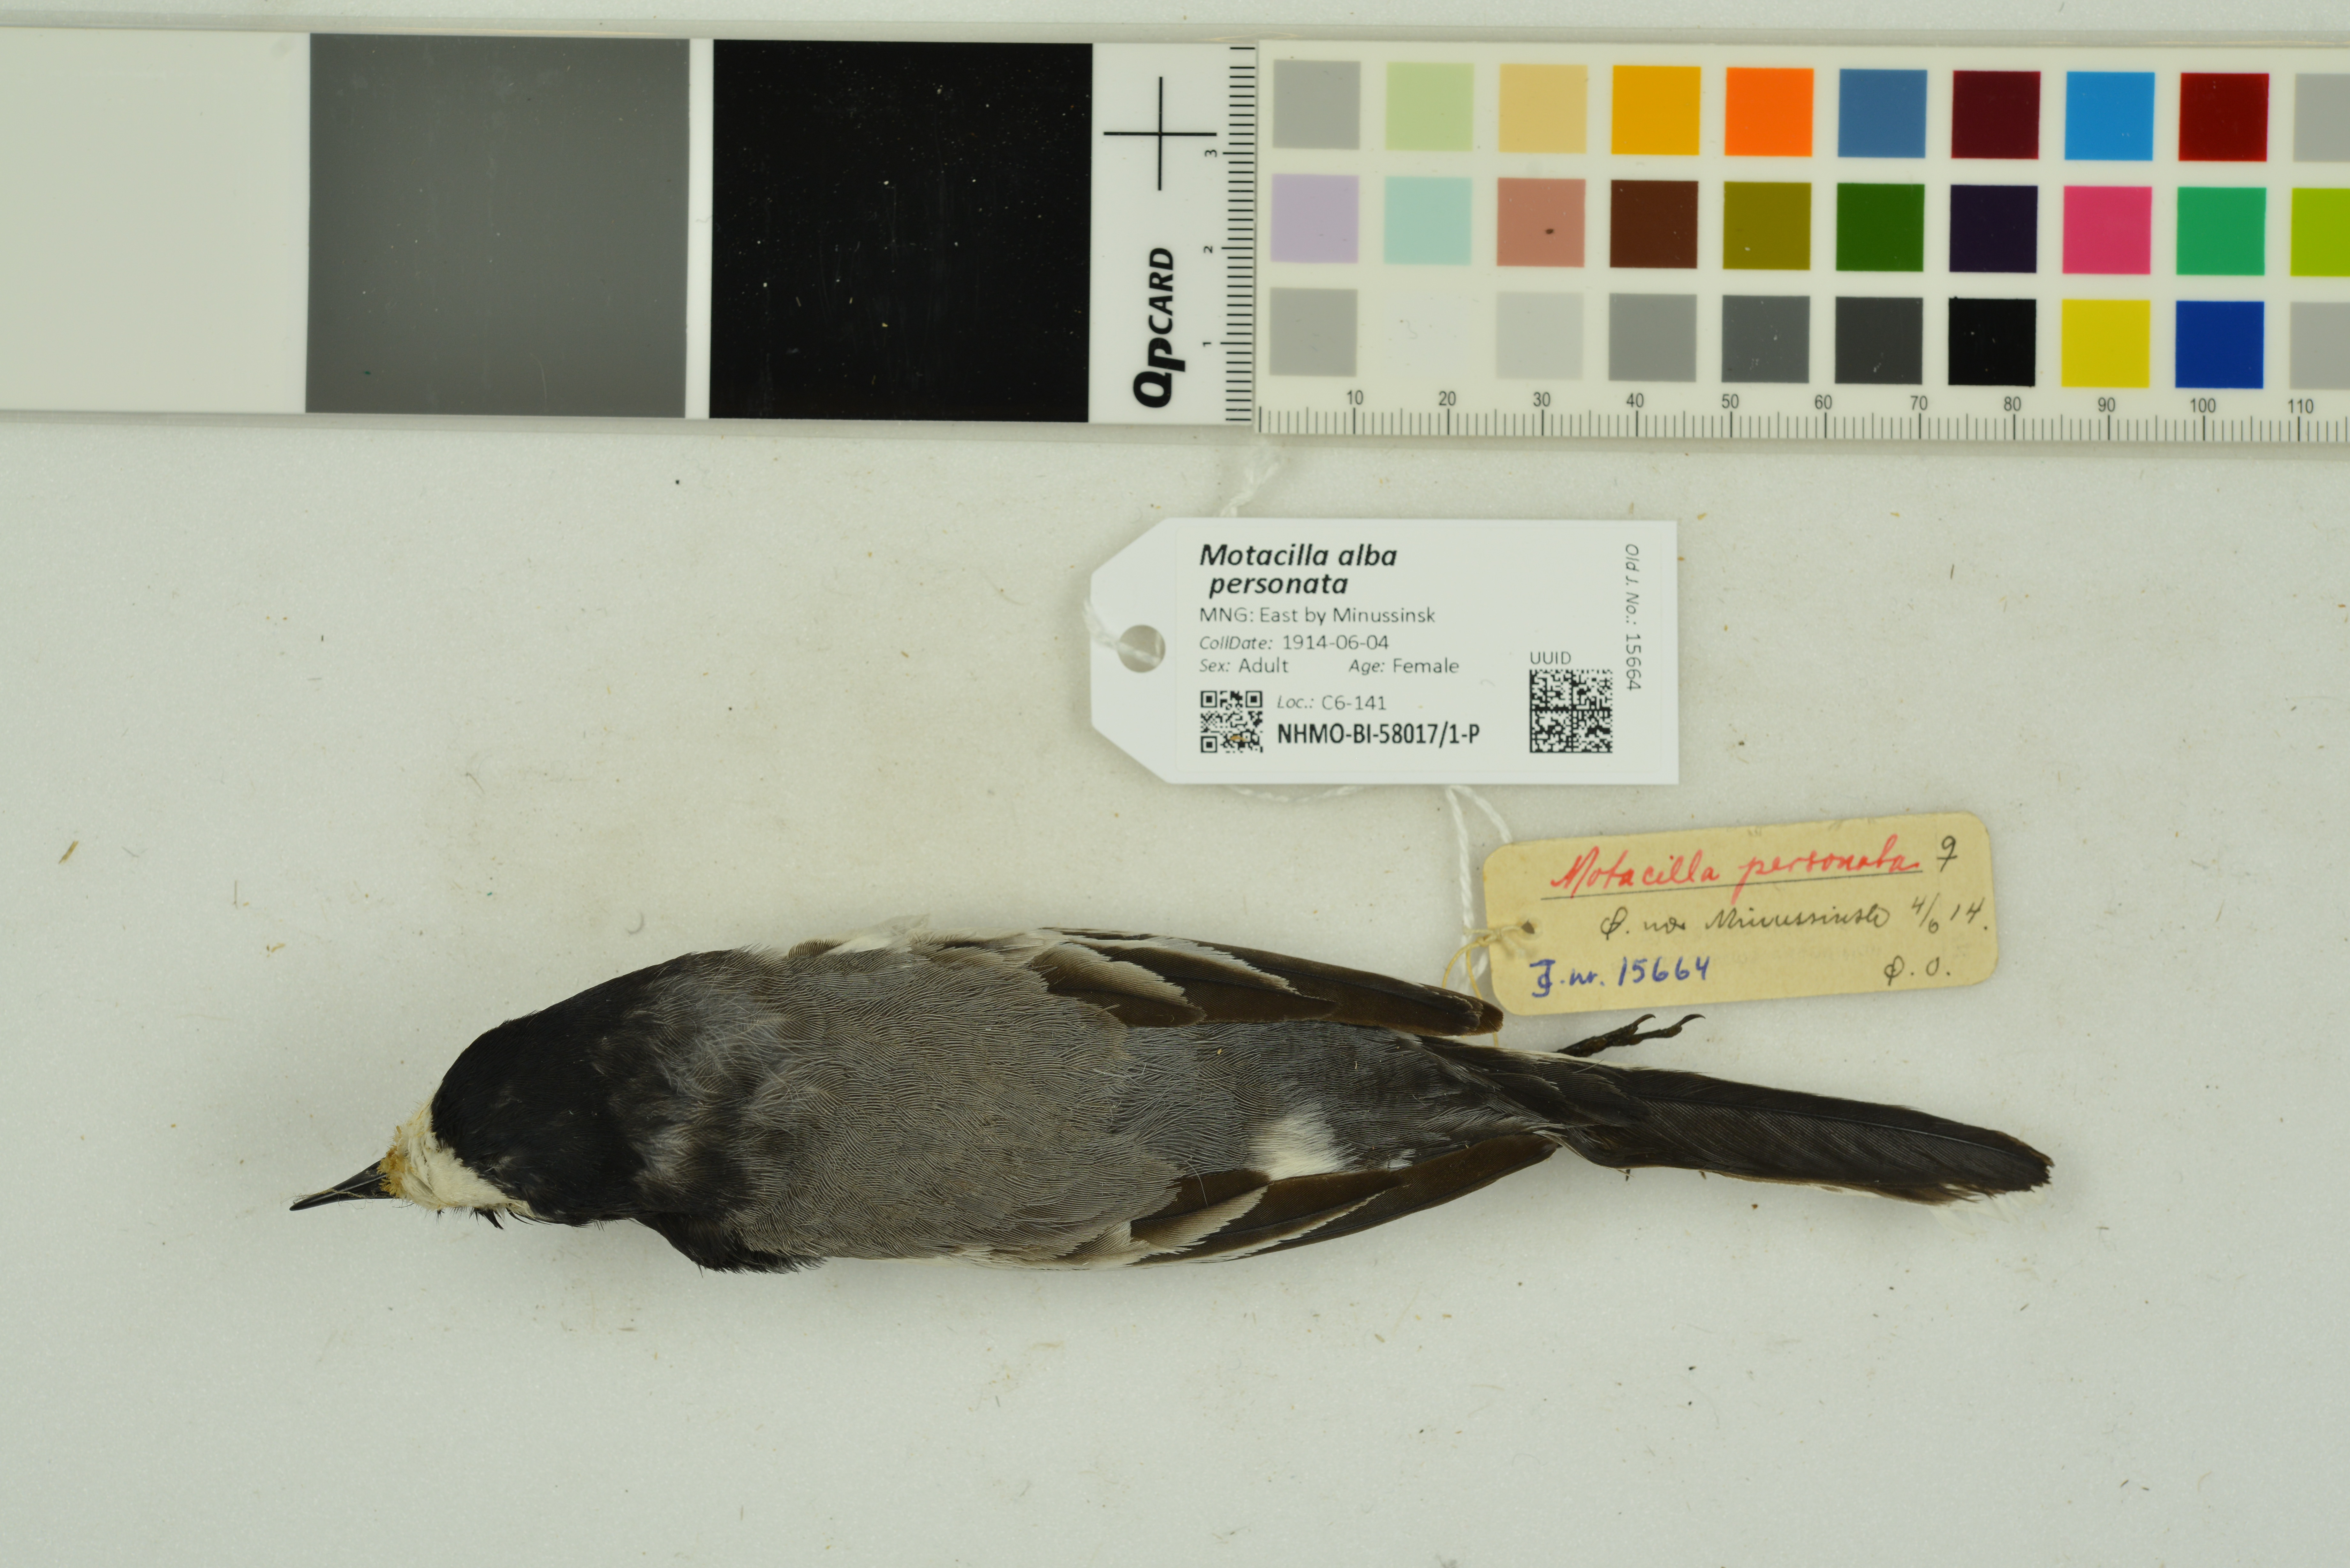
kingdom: Animalia
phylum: Chordata
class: Aves
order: Passeriformes
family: Motacillidae
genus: Motacilla
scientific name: Motacilla alba
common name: White wagtail
